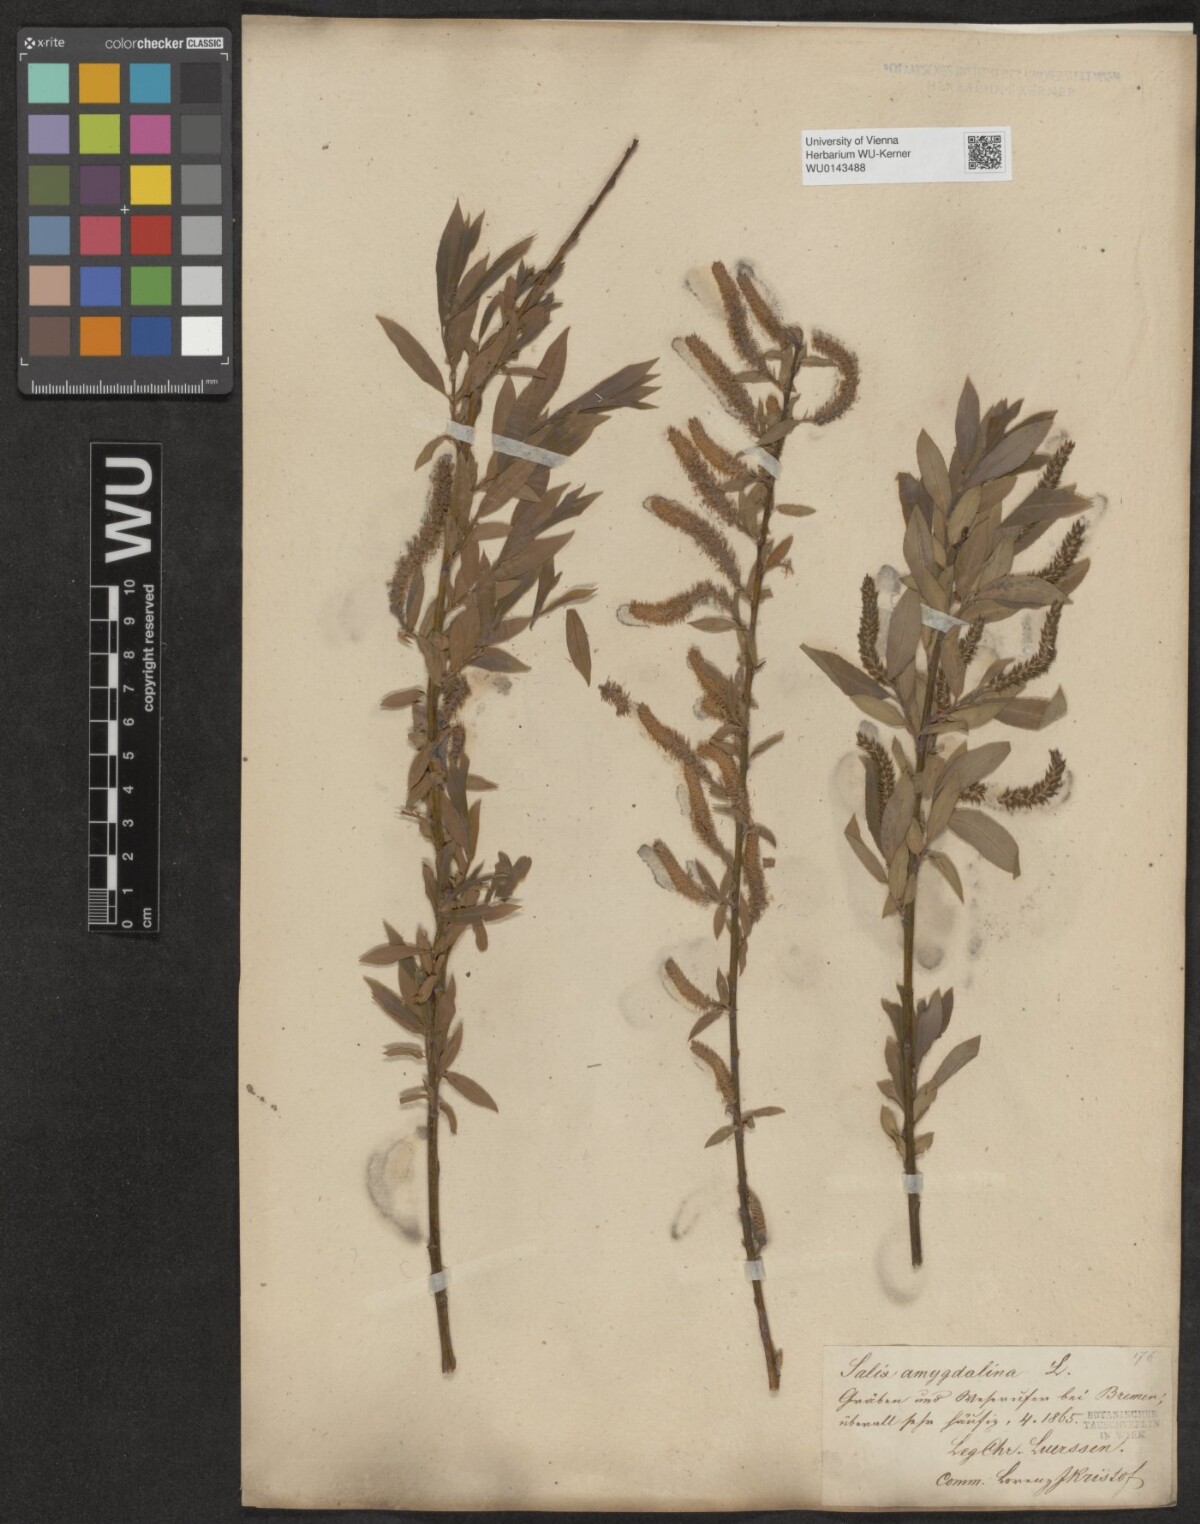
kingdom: Plantae
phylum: Tracheophyta
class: Magnoliopsida
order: Malpighiales
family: Salicaceae
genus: Salix
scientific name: Salix triandra
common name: Almond willow
